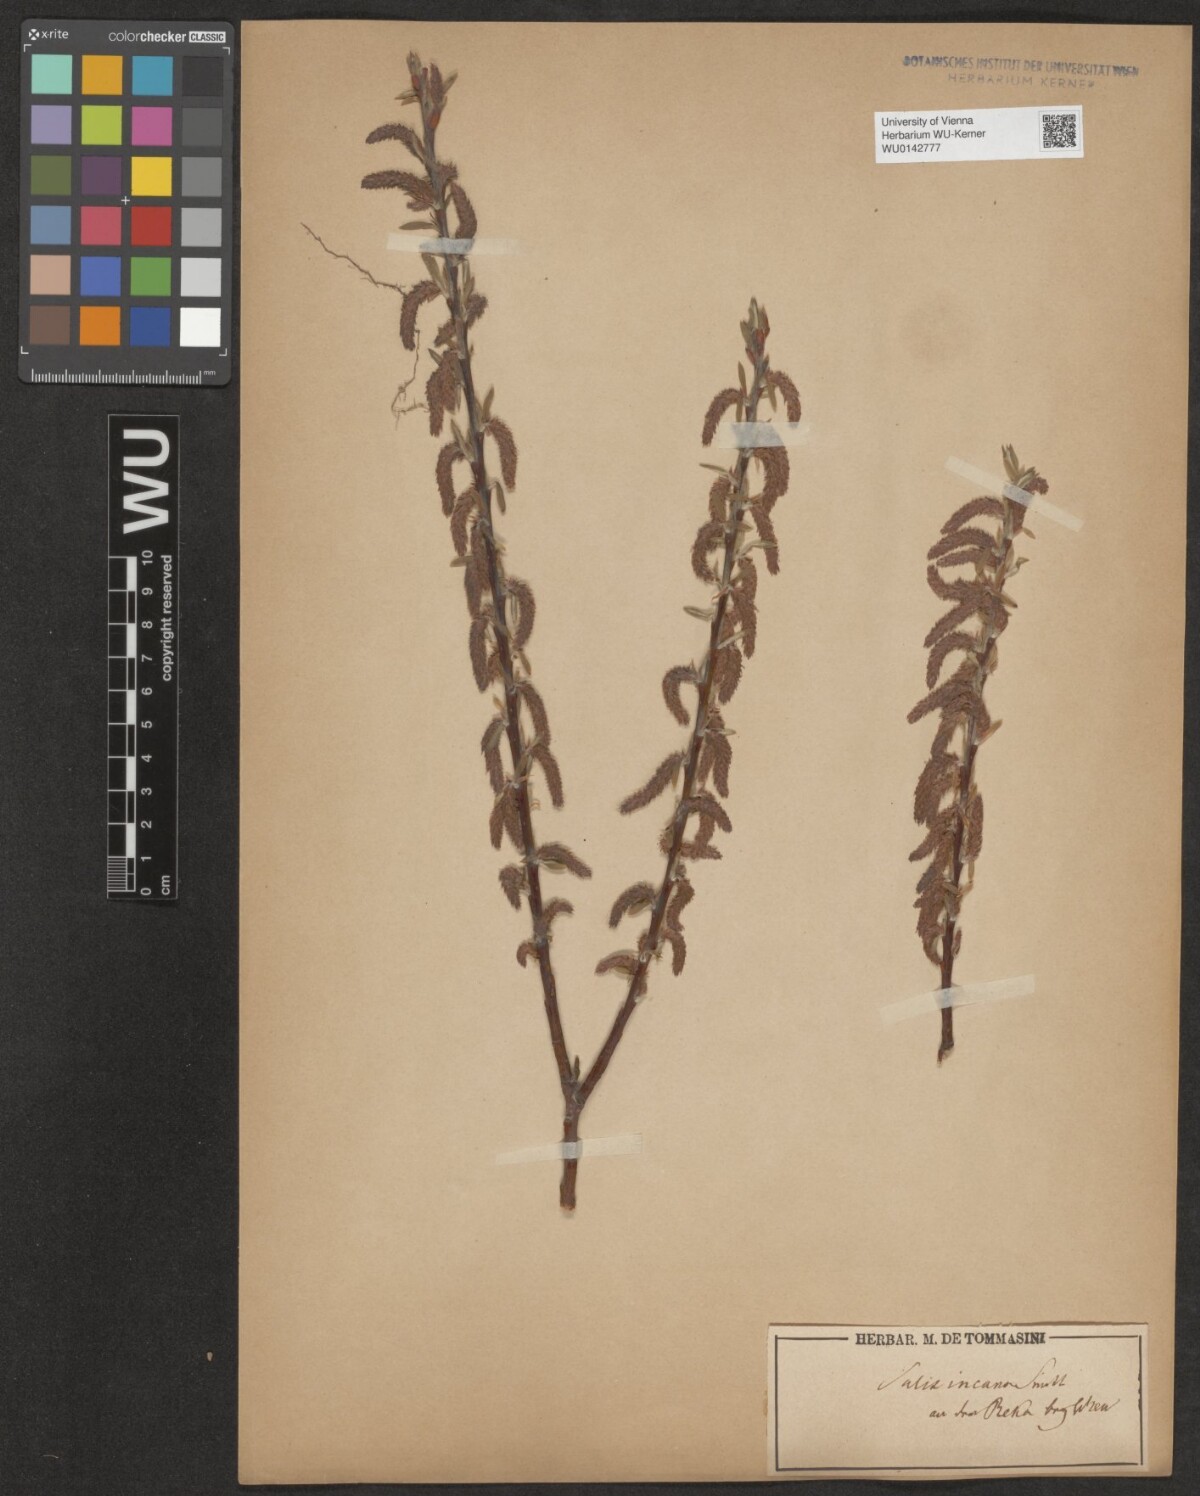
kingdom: Plantae
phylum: Tracheophyta
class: Magnoliopsida
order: Malpighiales
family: Salicaceae
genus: Salix
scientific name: Salix eleagnos
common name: Elaeagnus willow
